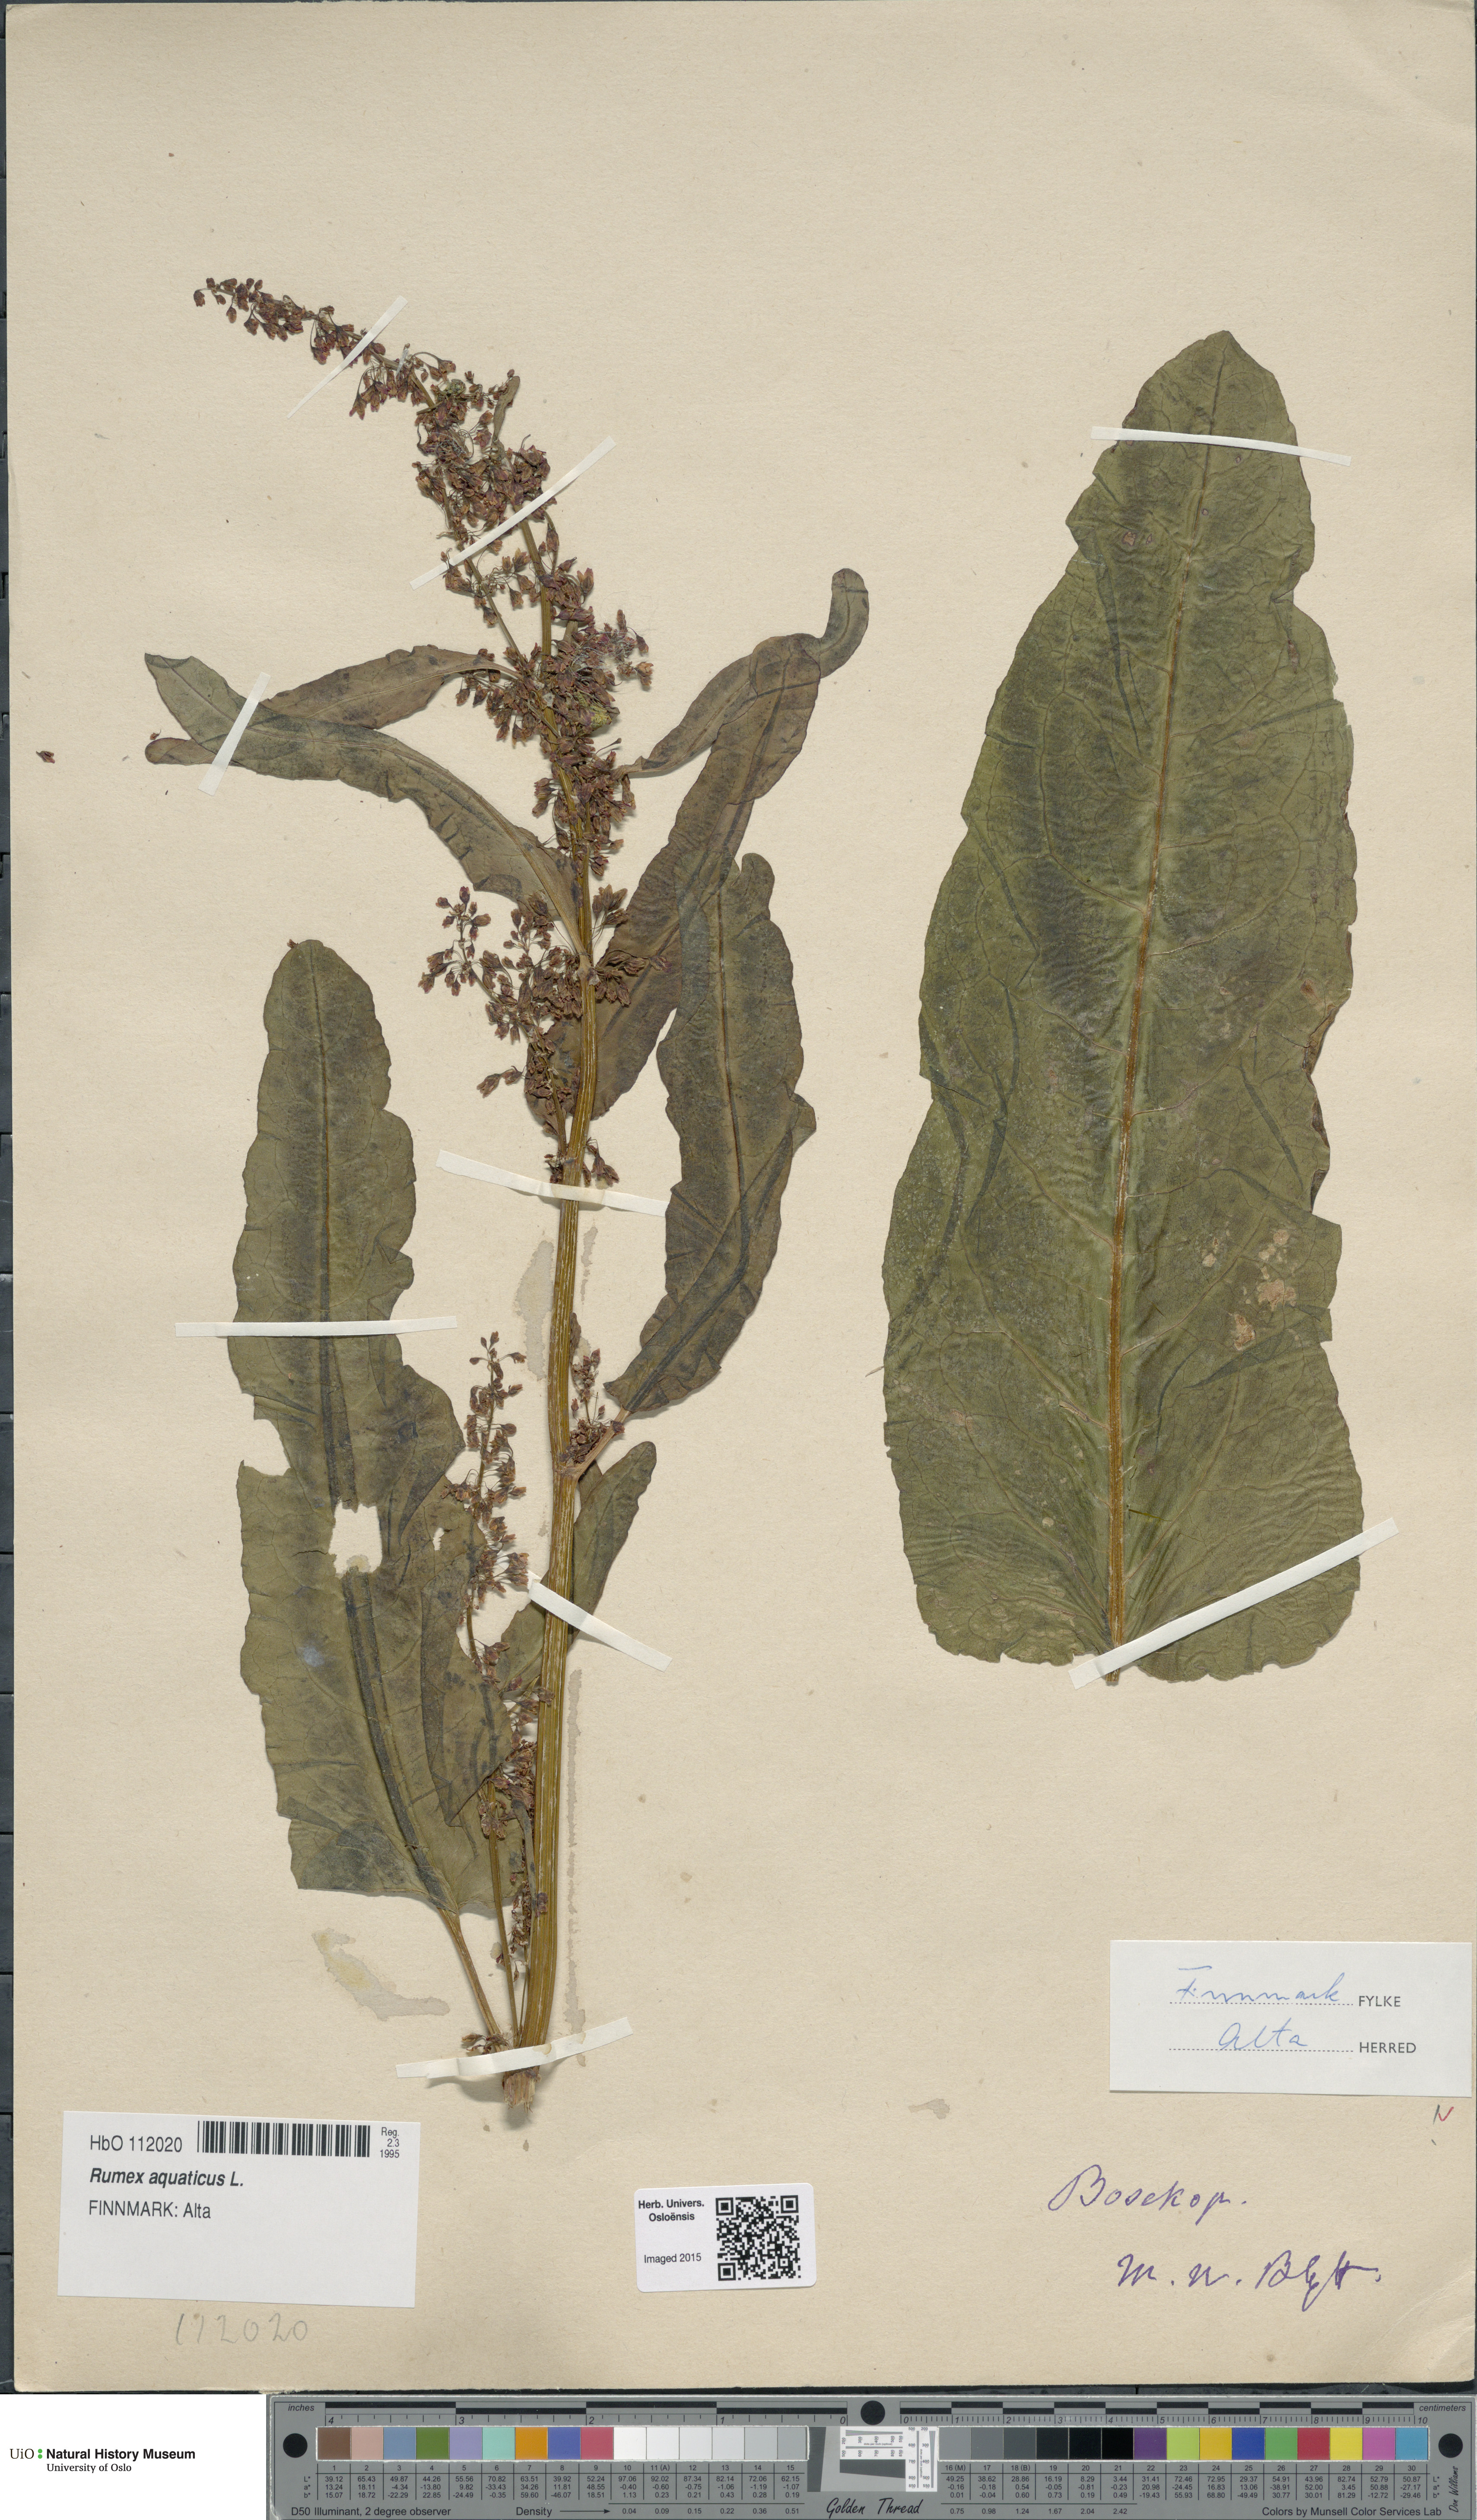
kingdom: Plantae
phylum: Tracheophyta
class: Magnoliopsida
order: Caryophyllales
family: Polygonaceae
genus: Rumex
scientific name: Rumex aquaticus
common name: Scottish dock
